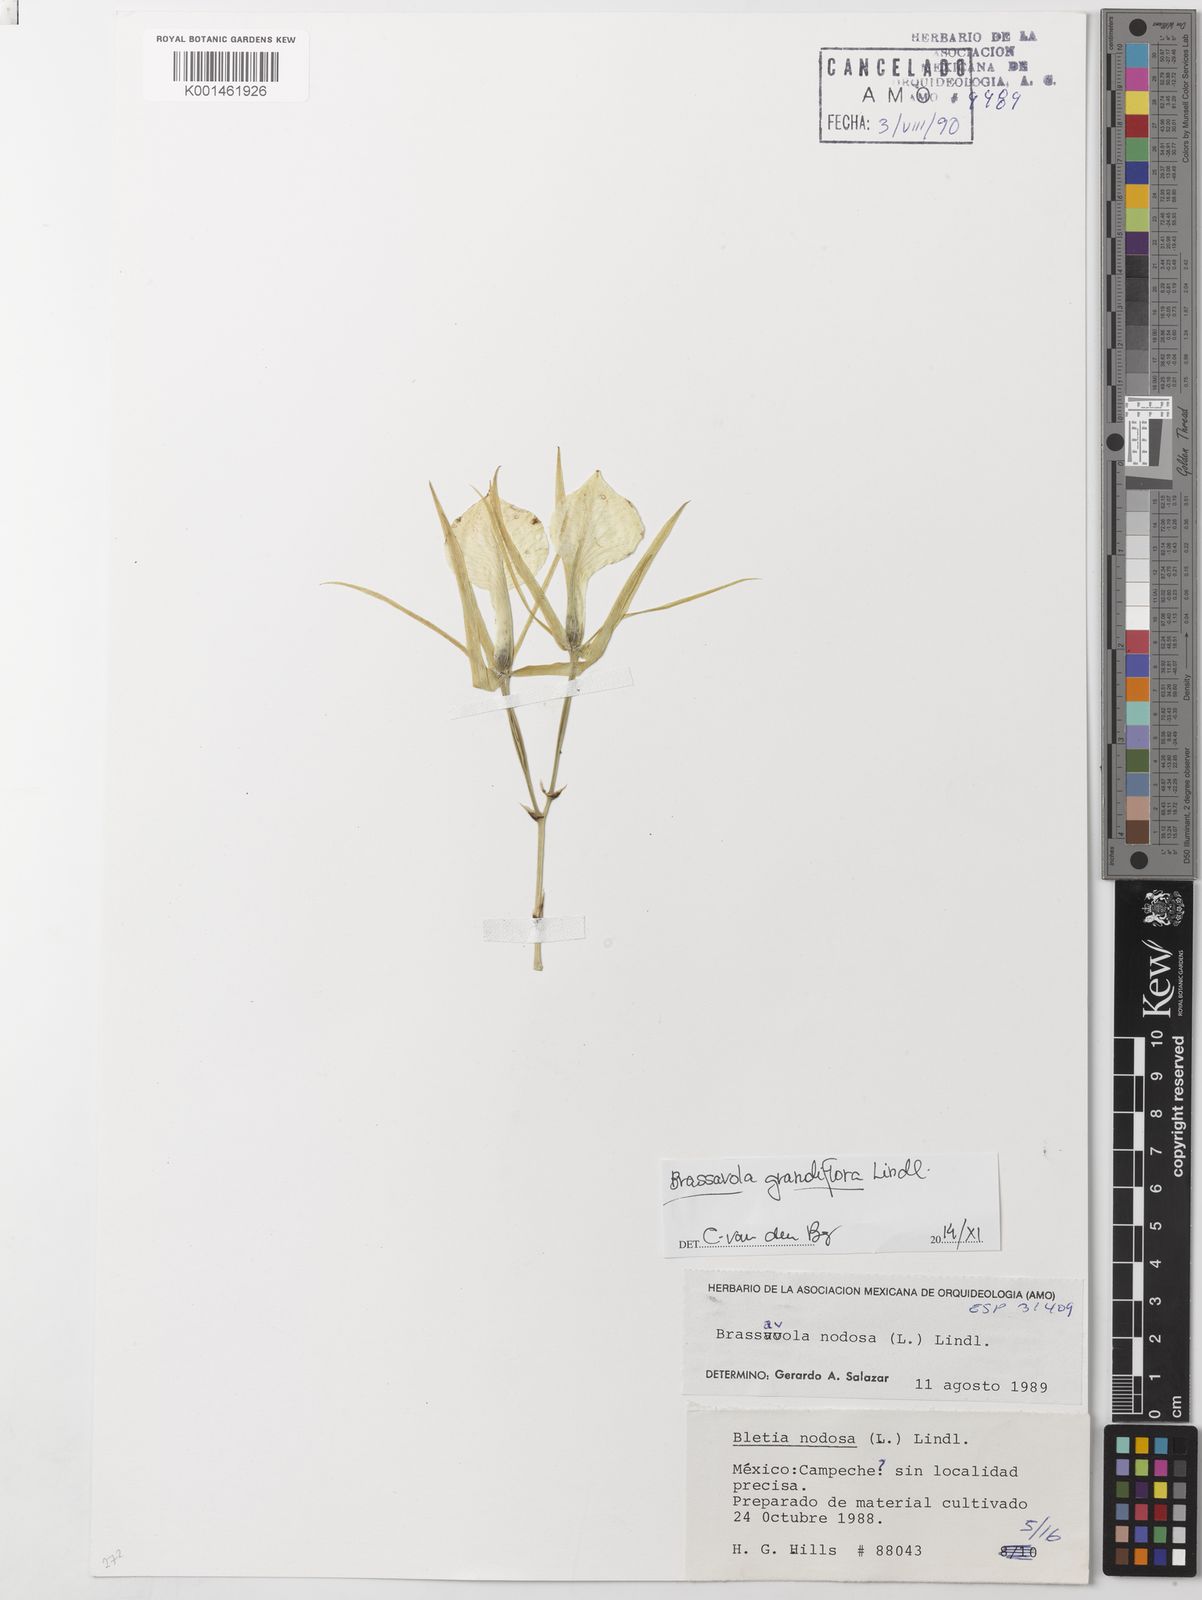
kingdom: Plantae
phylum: Tracheophyta
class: Liliopsida
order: Asparagales
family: Orchidaceae
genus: Brassavola
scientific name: Brassavola nodosa
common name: Lady of the night
